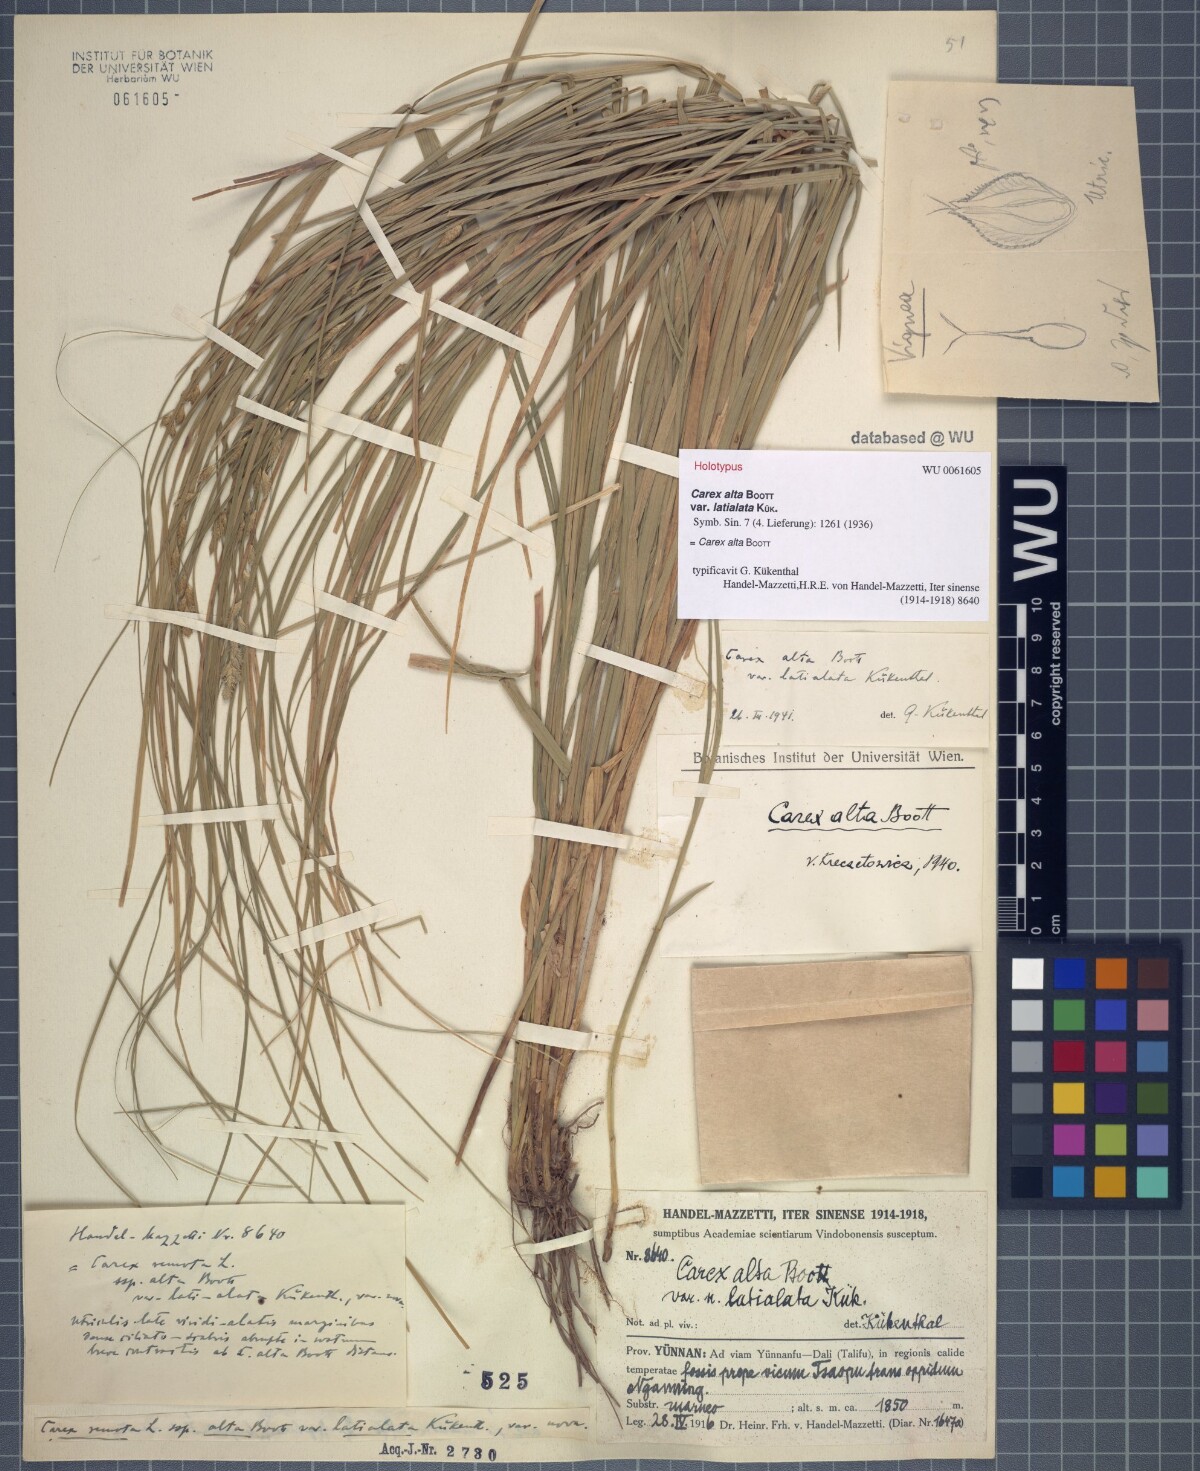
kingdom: Plantae
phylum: Tracheophyta
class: Liliopsida
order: Poales
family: Cyperaceae
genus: Carex
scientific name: Carex alta
